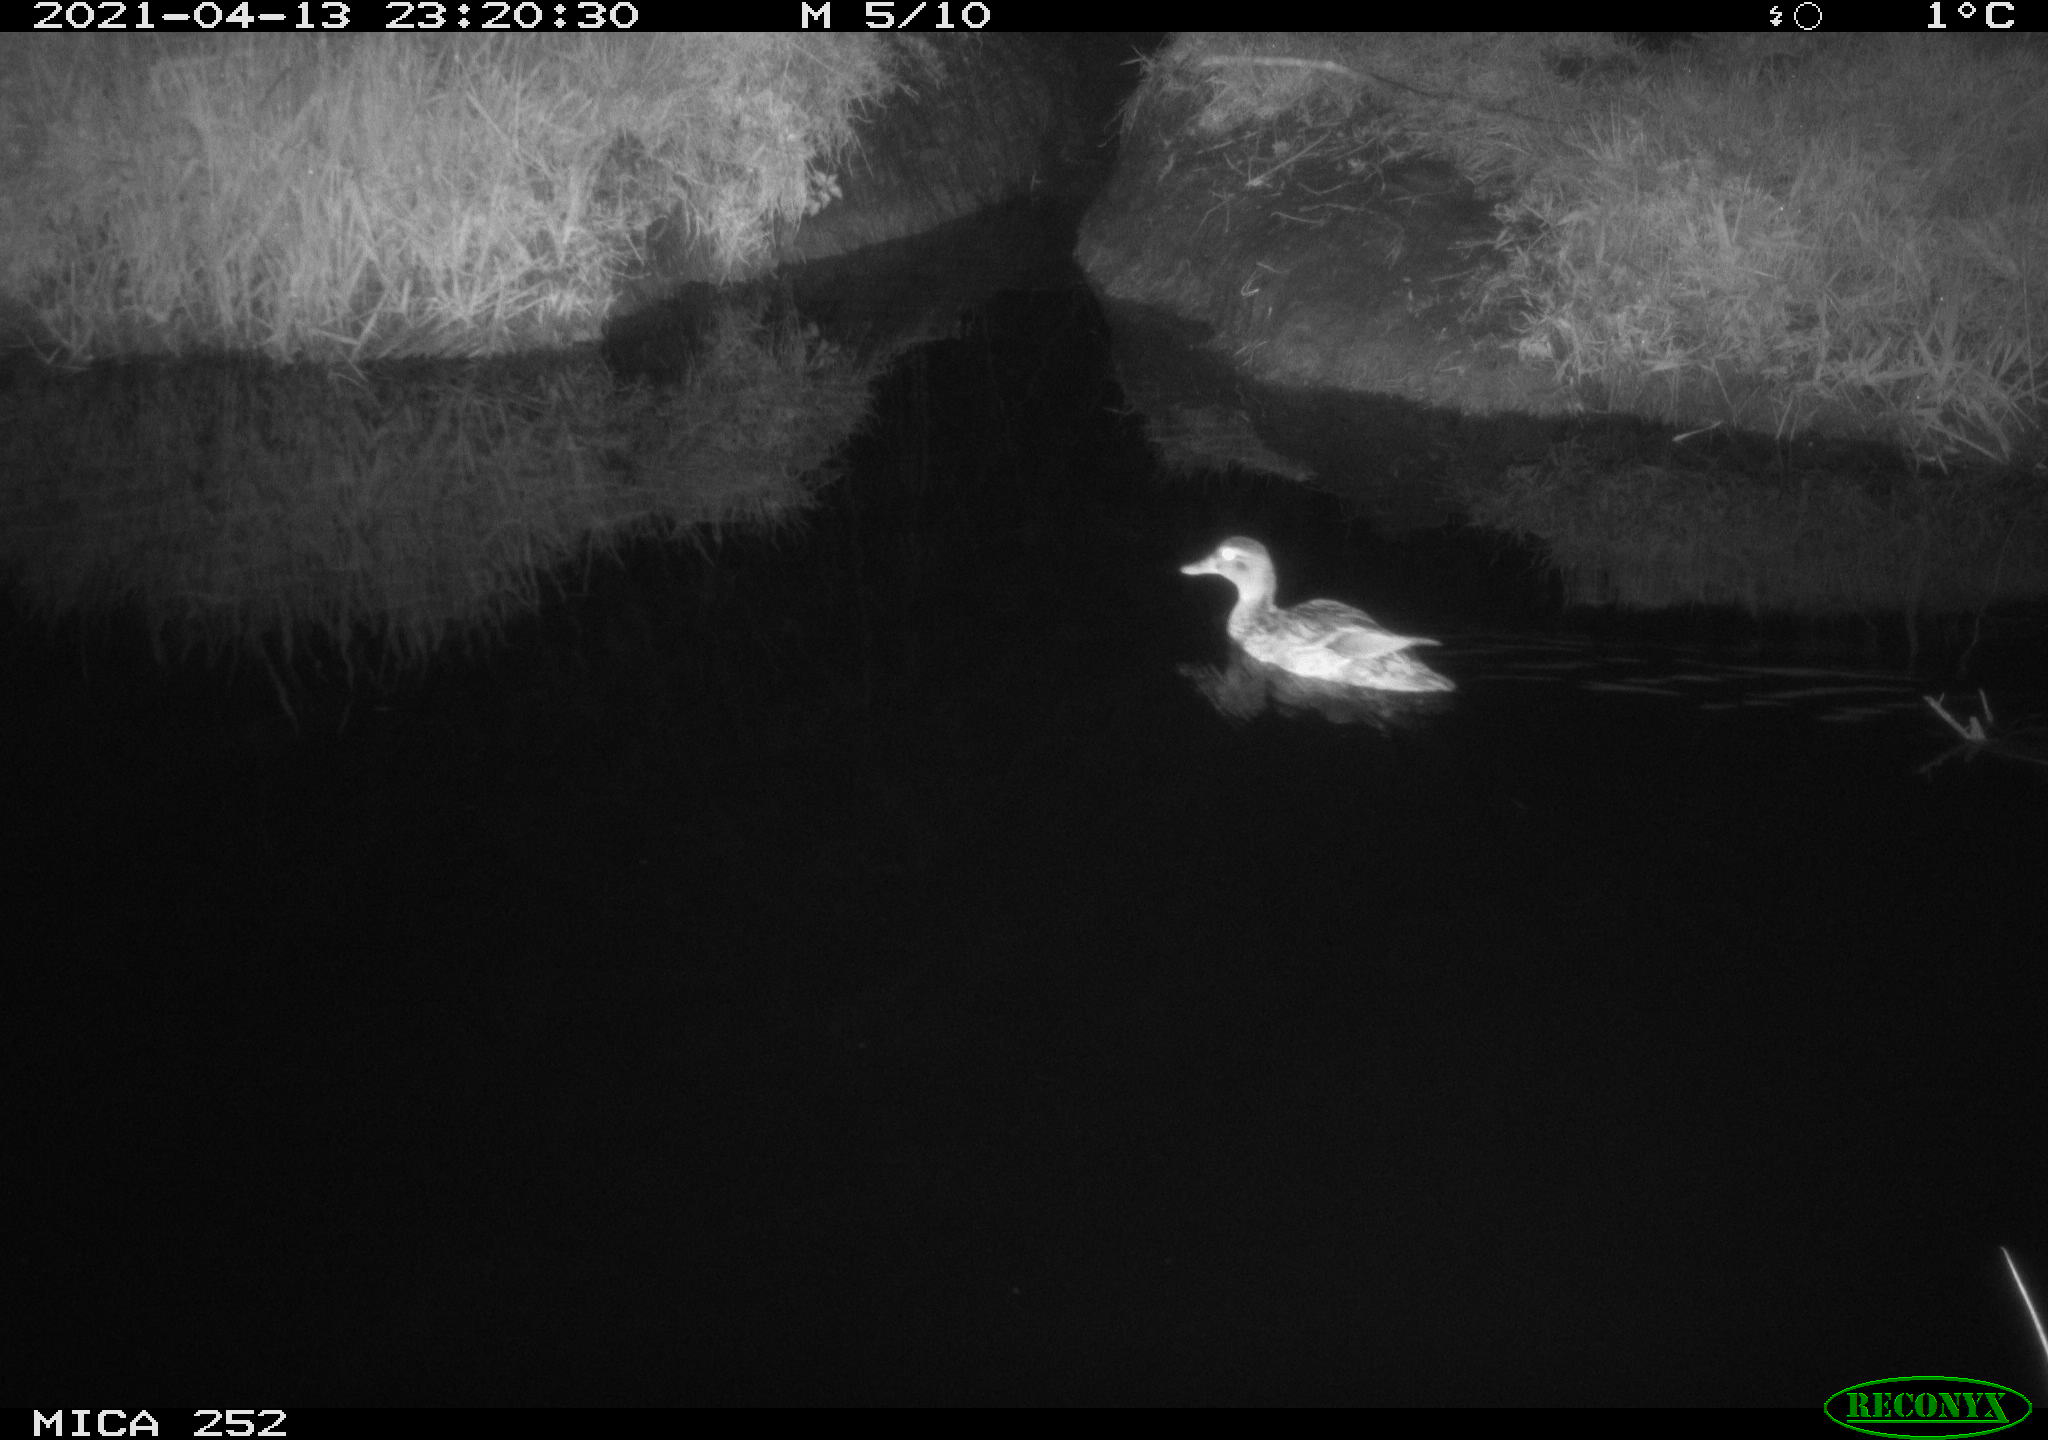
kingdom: Animalia
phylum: Chordata
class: Aves
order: Anseriformes
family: Anatidae
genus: Anas
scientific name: Anas platyrhynchos
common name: Mallard
